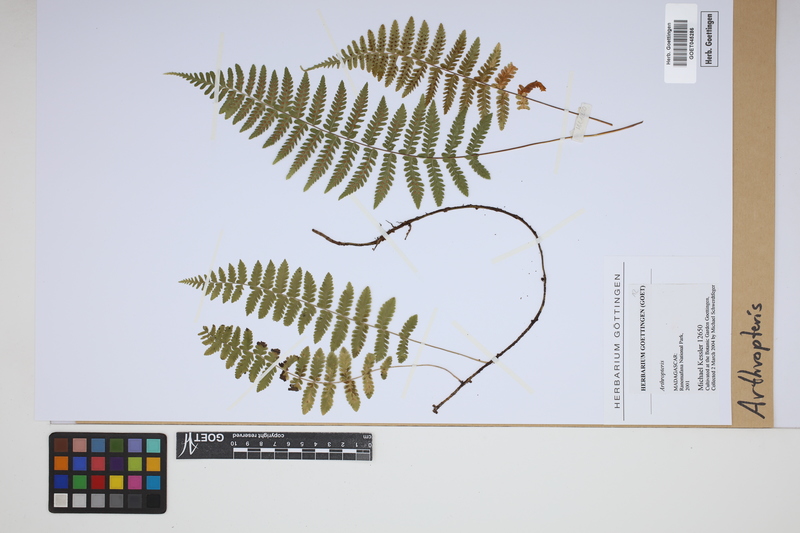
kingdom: Plantae
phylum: Tracheophyta
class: Polypodiopsida
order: Polypodiales
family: Tectariaceae
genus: Arthropteris
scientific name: Arthropteris
